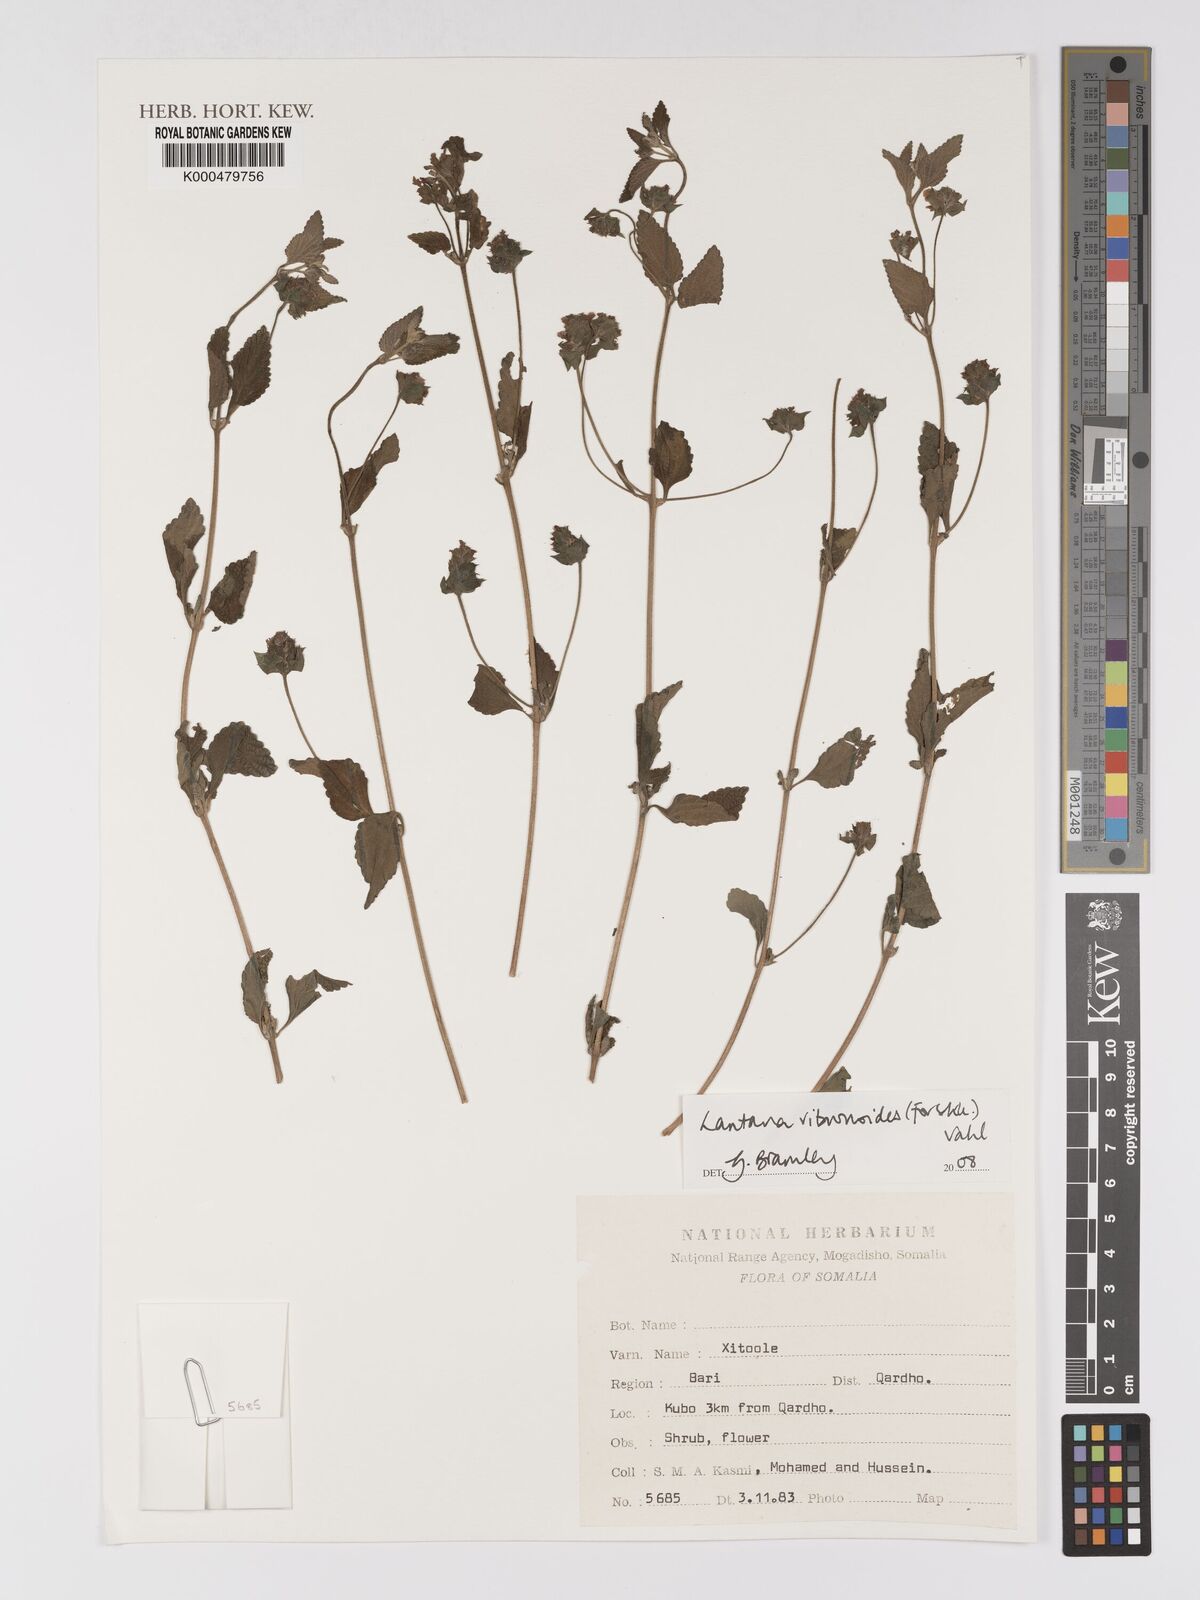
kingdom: Plantae
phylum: Tracheophyta
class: Magnoliopsida
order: Lamiales
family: Verbenaceae
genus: Lantana
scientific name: Lantana viburnoides
